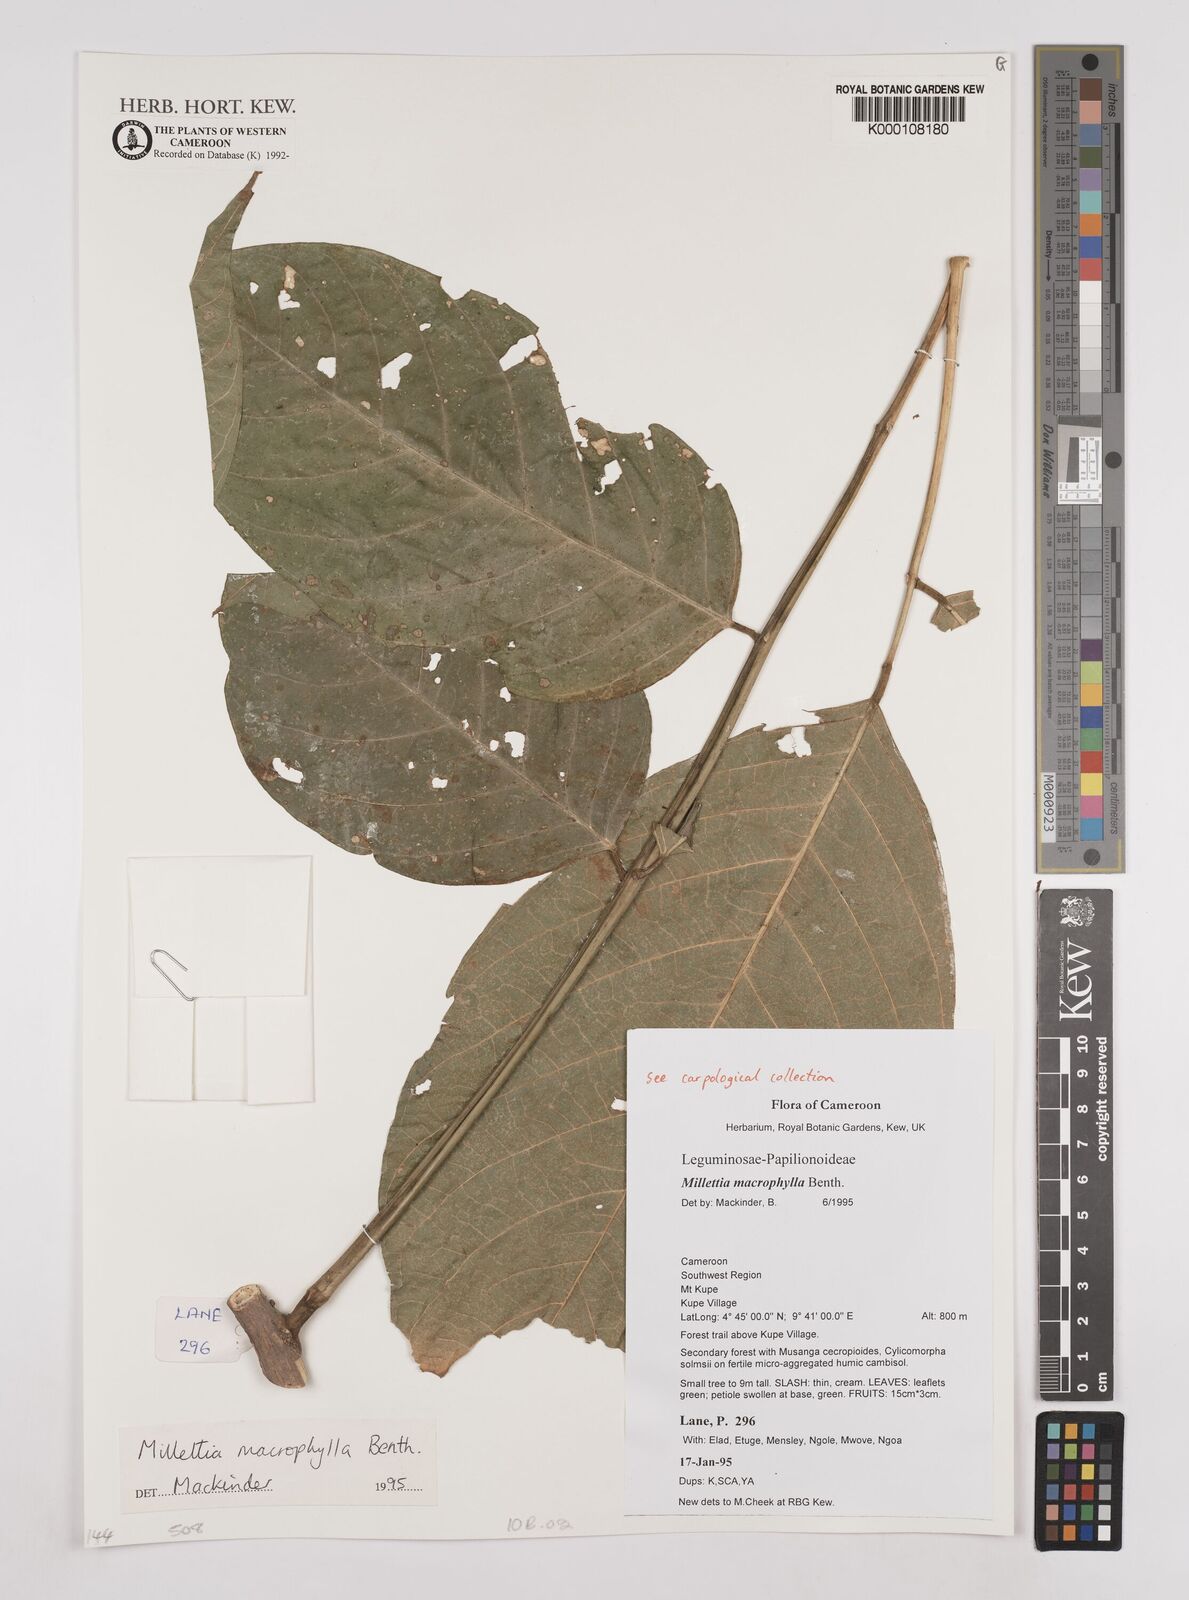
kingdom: Plantae
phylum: Tracheophyta
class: Magnoliopsida
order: Fabales
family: Fabaceae
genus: Millettia
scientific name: Millettia macrophylla
